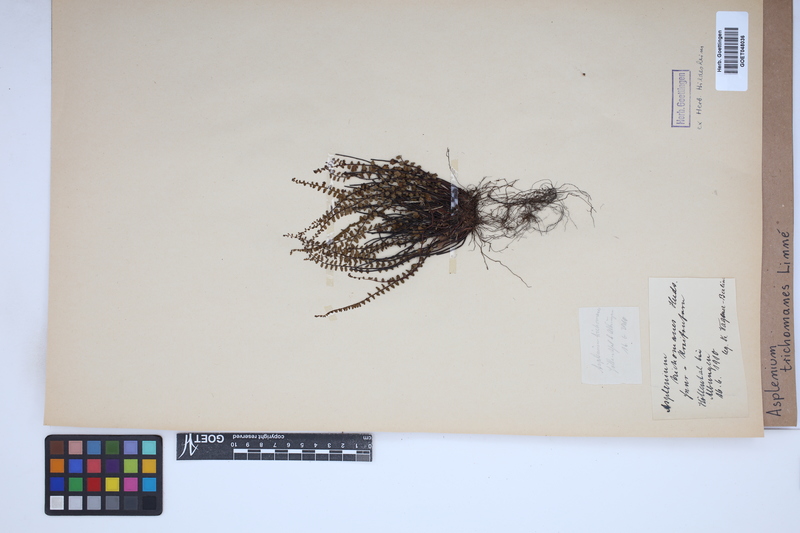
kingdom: Plantae
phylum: Tracheophyta
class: Polypodiopsida
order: Polypodiales
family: Aspleniaceae
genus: Asplenium
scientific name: Asplenium trichomanes
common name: Maidenhair spleenwort
